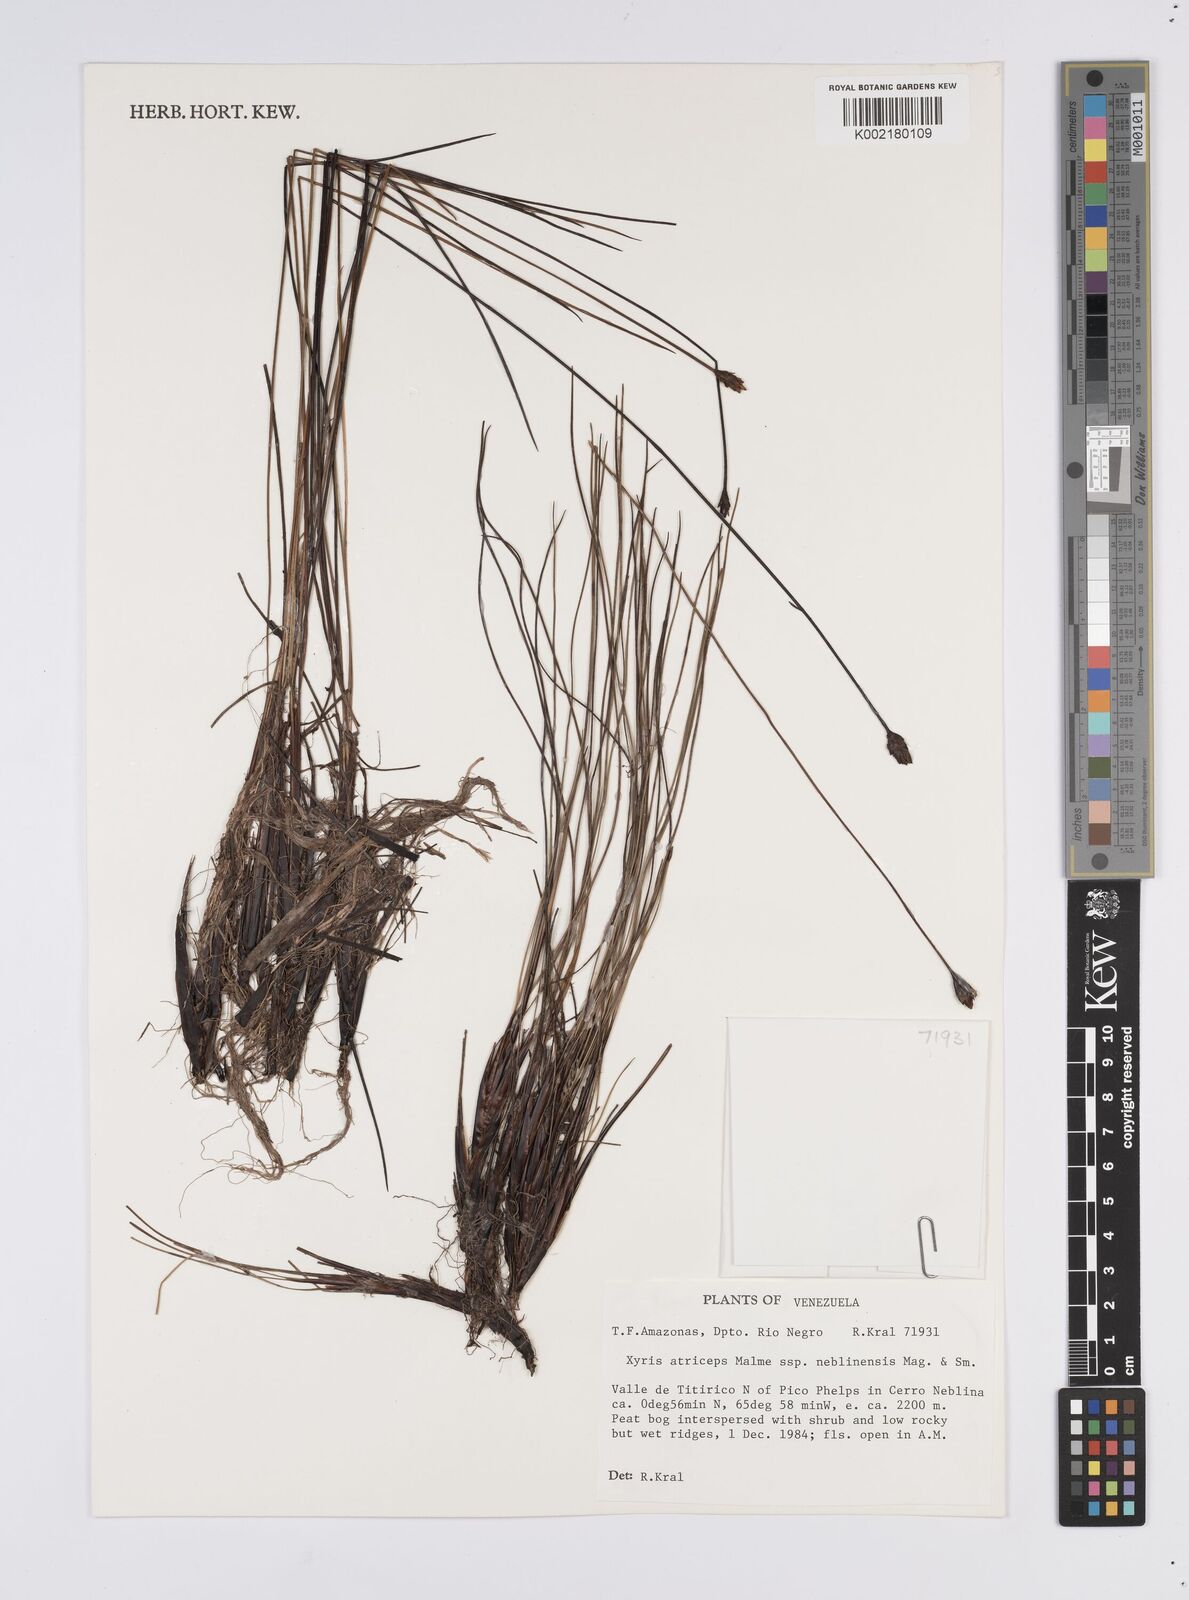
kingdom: Plantae
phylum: Tracheophyta
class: Liliopsida
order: Poales
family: Xyridaceae
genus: Xyris
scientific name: Xyris atriceps
